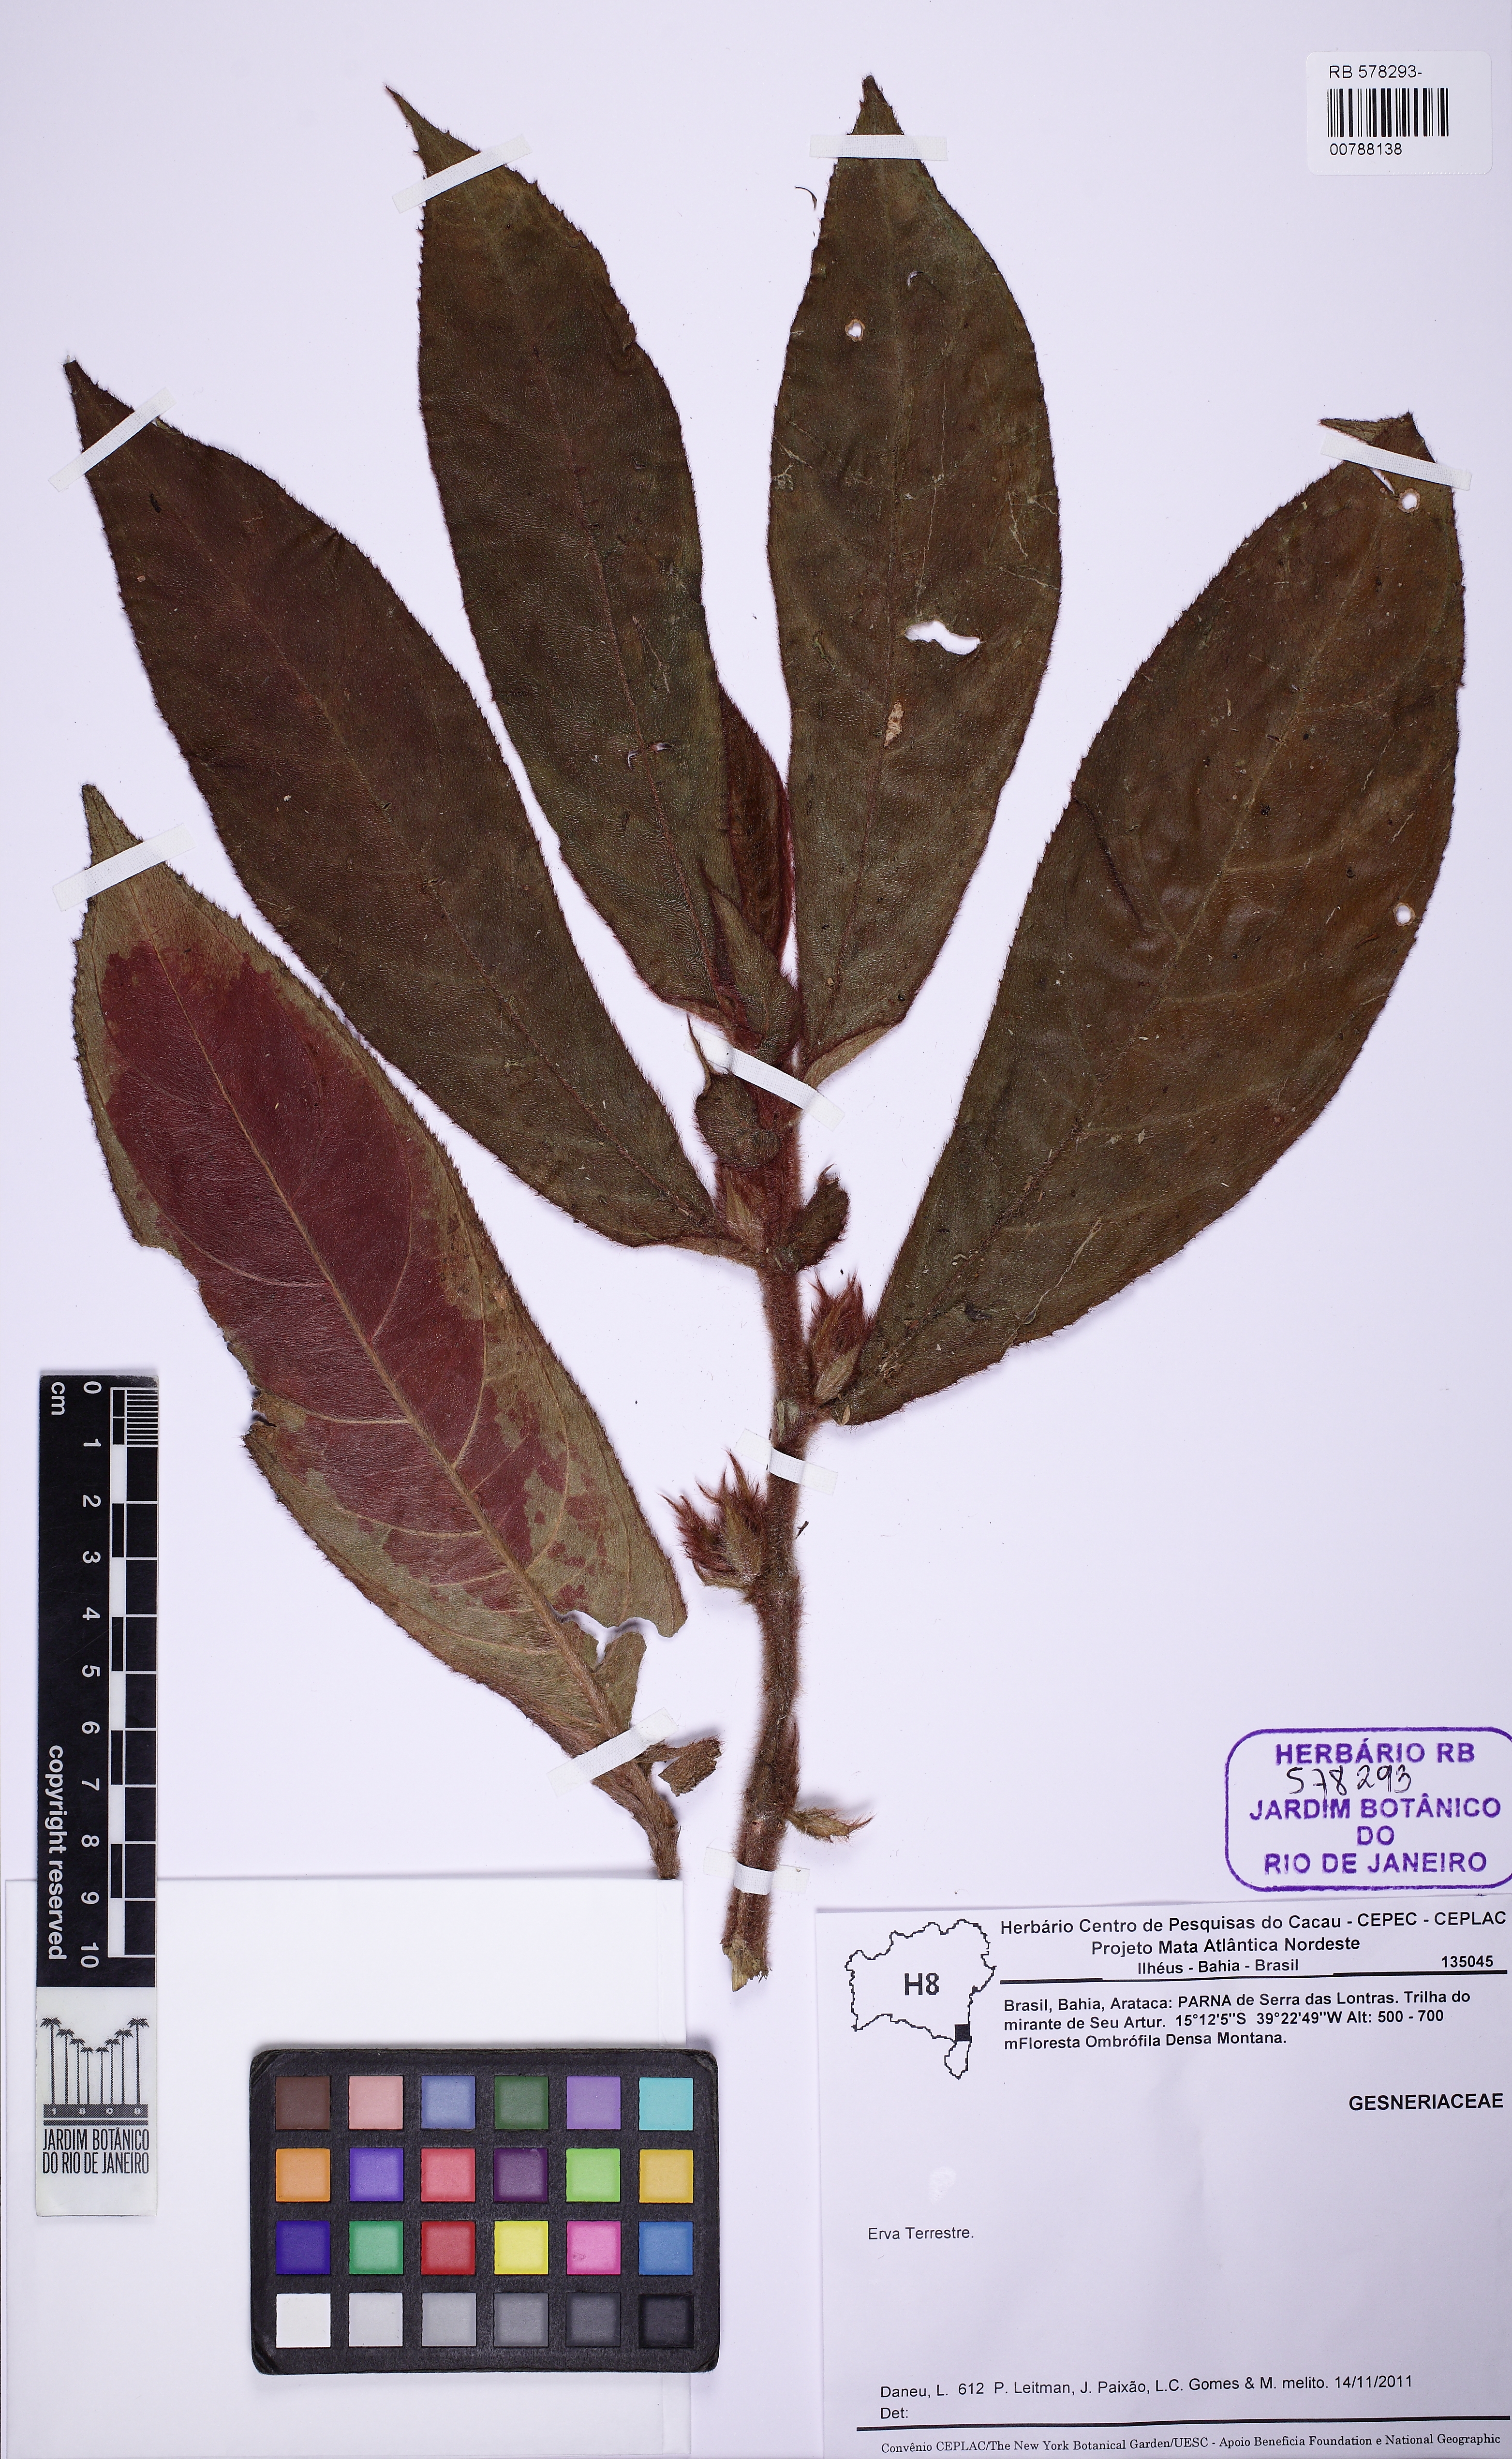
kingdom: Plantae
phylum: Tracheophyta
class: Magnoliopsida
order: Lamiales
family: Gesneriaceae
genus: Columnea
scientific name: Columnea sanguinea
